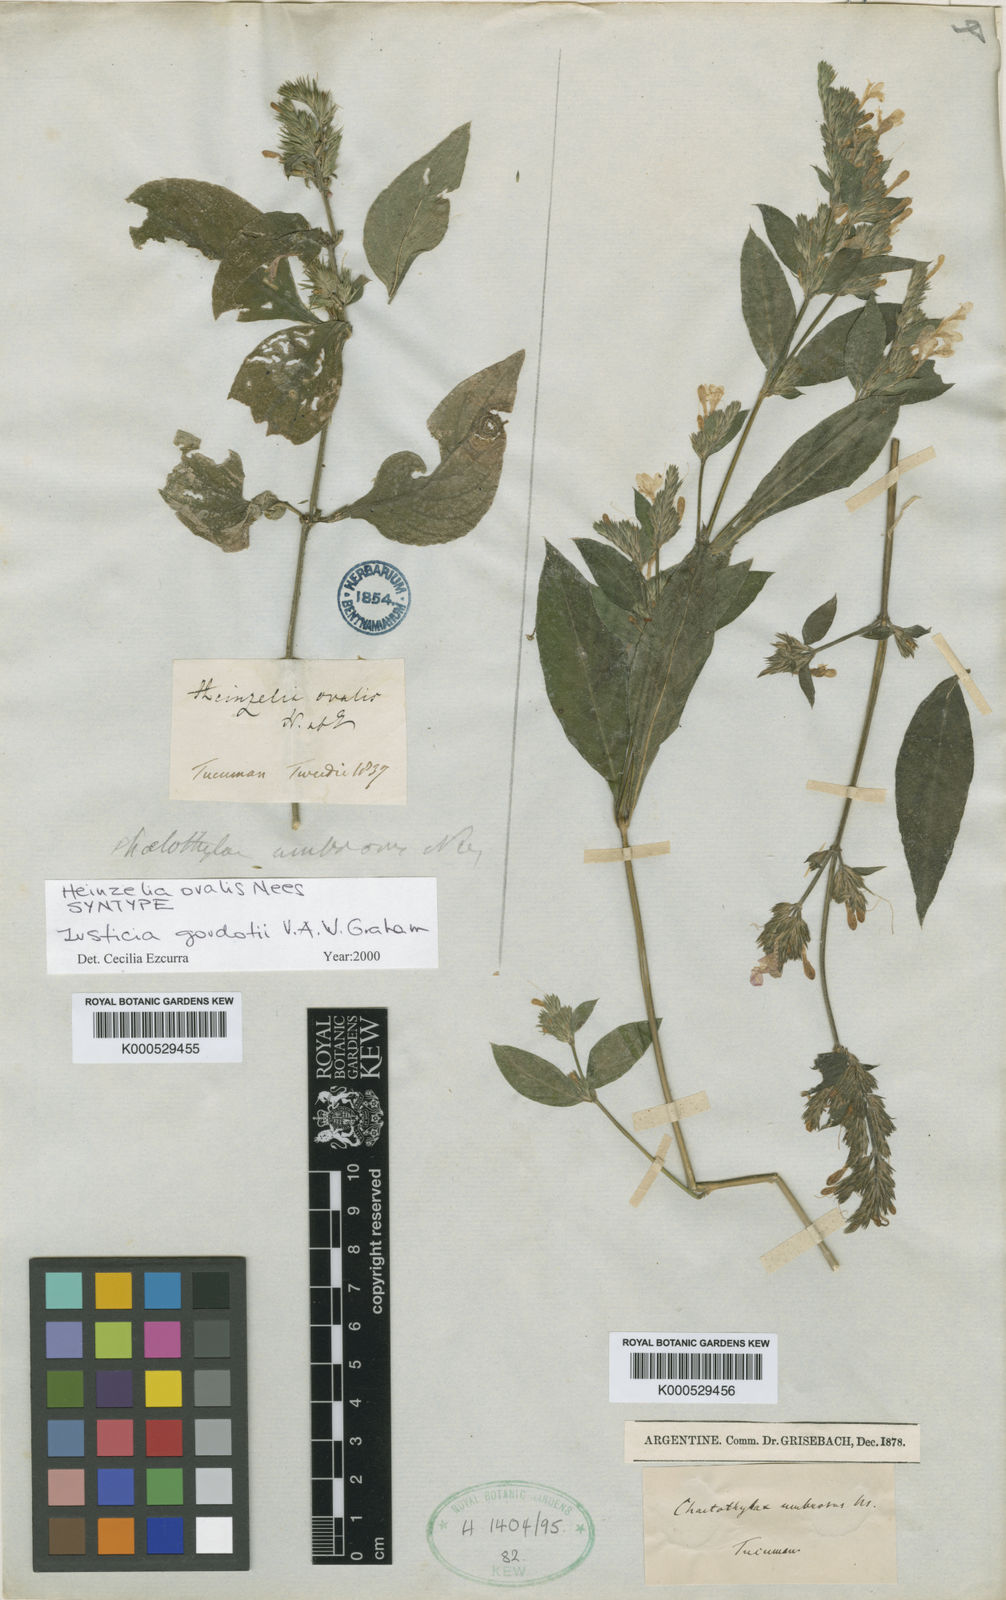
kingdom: Plantae
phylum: Tracheophyta
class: Magnoliopsida
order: Lamiales
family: Acanthaceae
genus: Justicia
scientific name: Justicia goudotii
